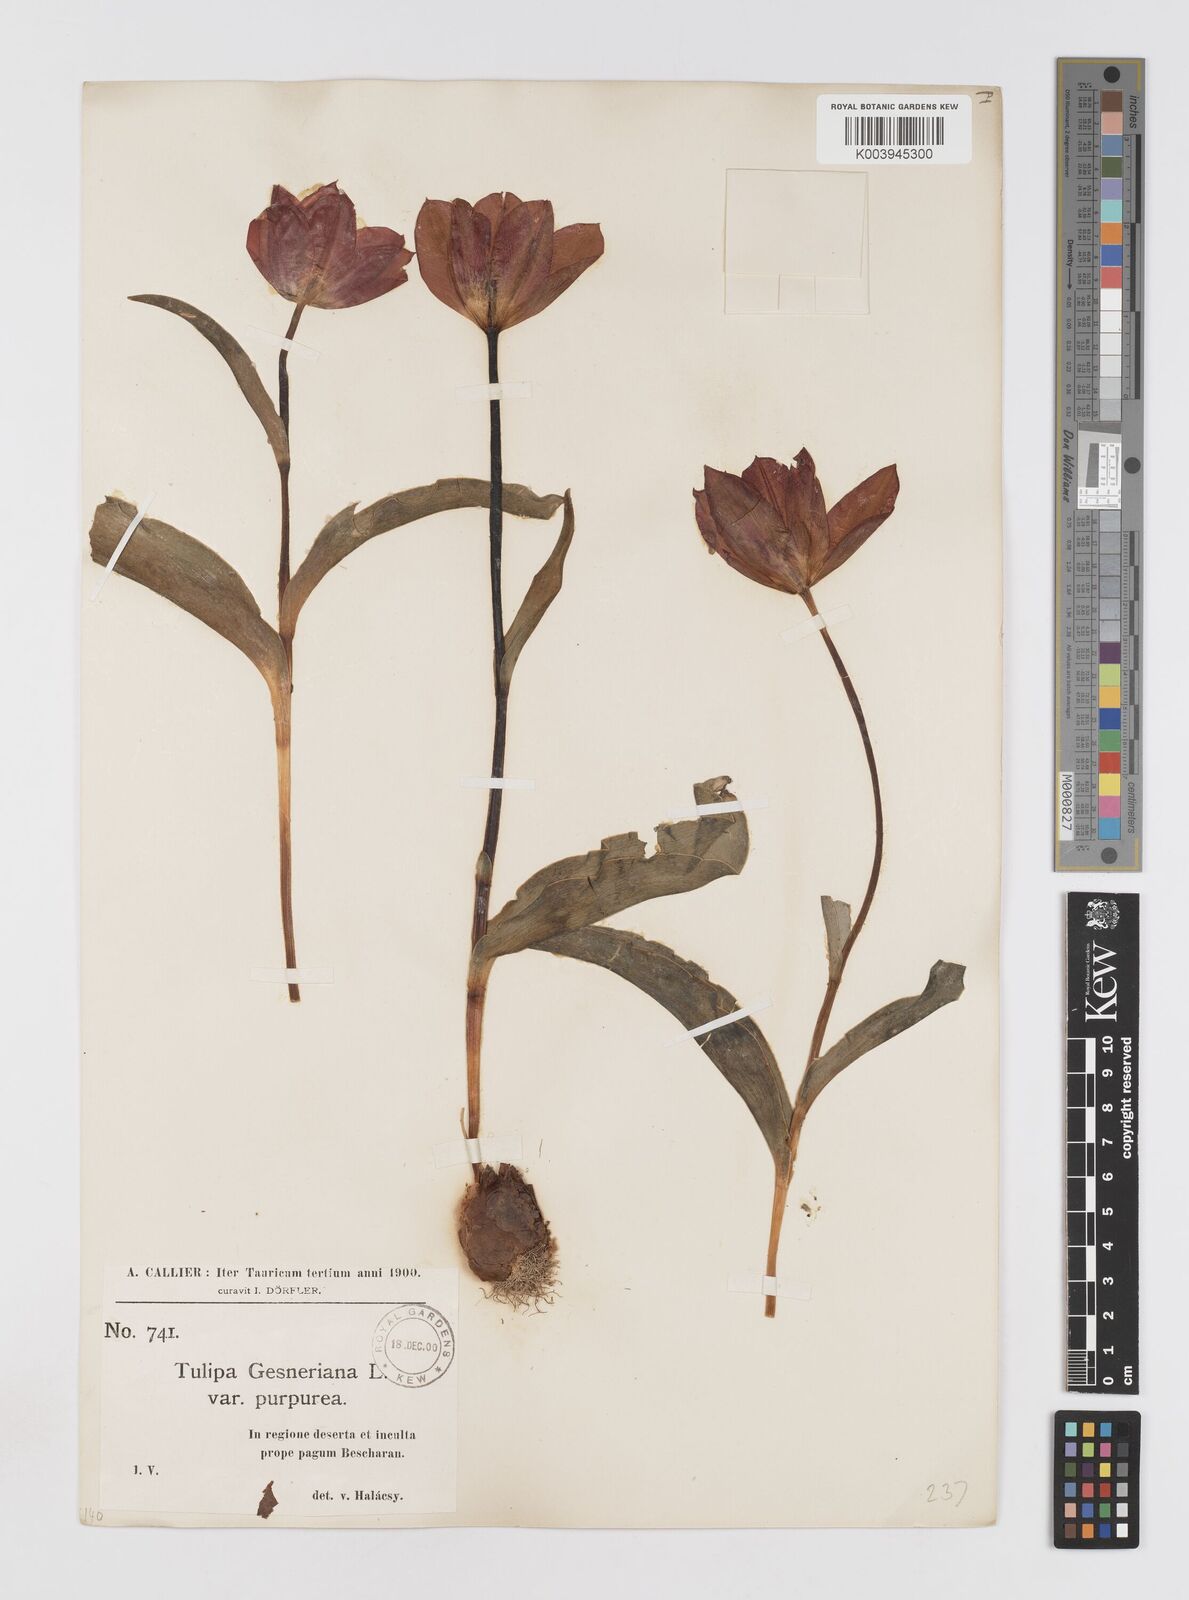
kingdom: Plantae
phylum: Tracheophyta
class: Liliopsida
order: Liliales
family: Liliaceae
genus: Tulipa
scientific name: Tulipa gesneriana
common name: Garden tulip
